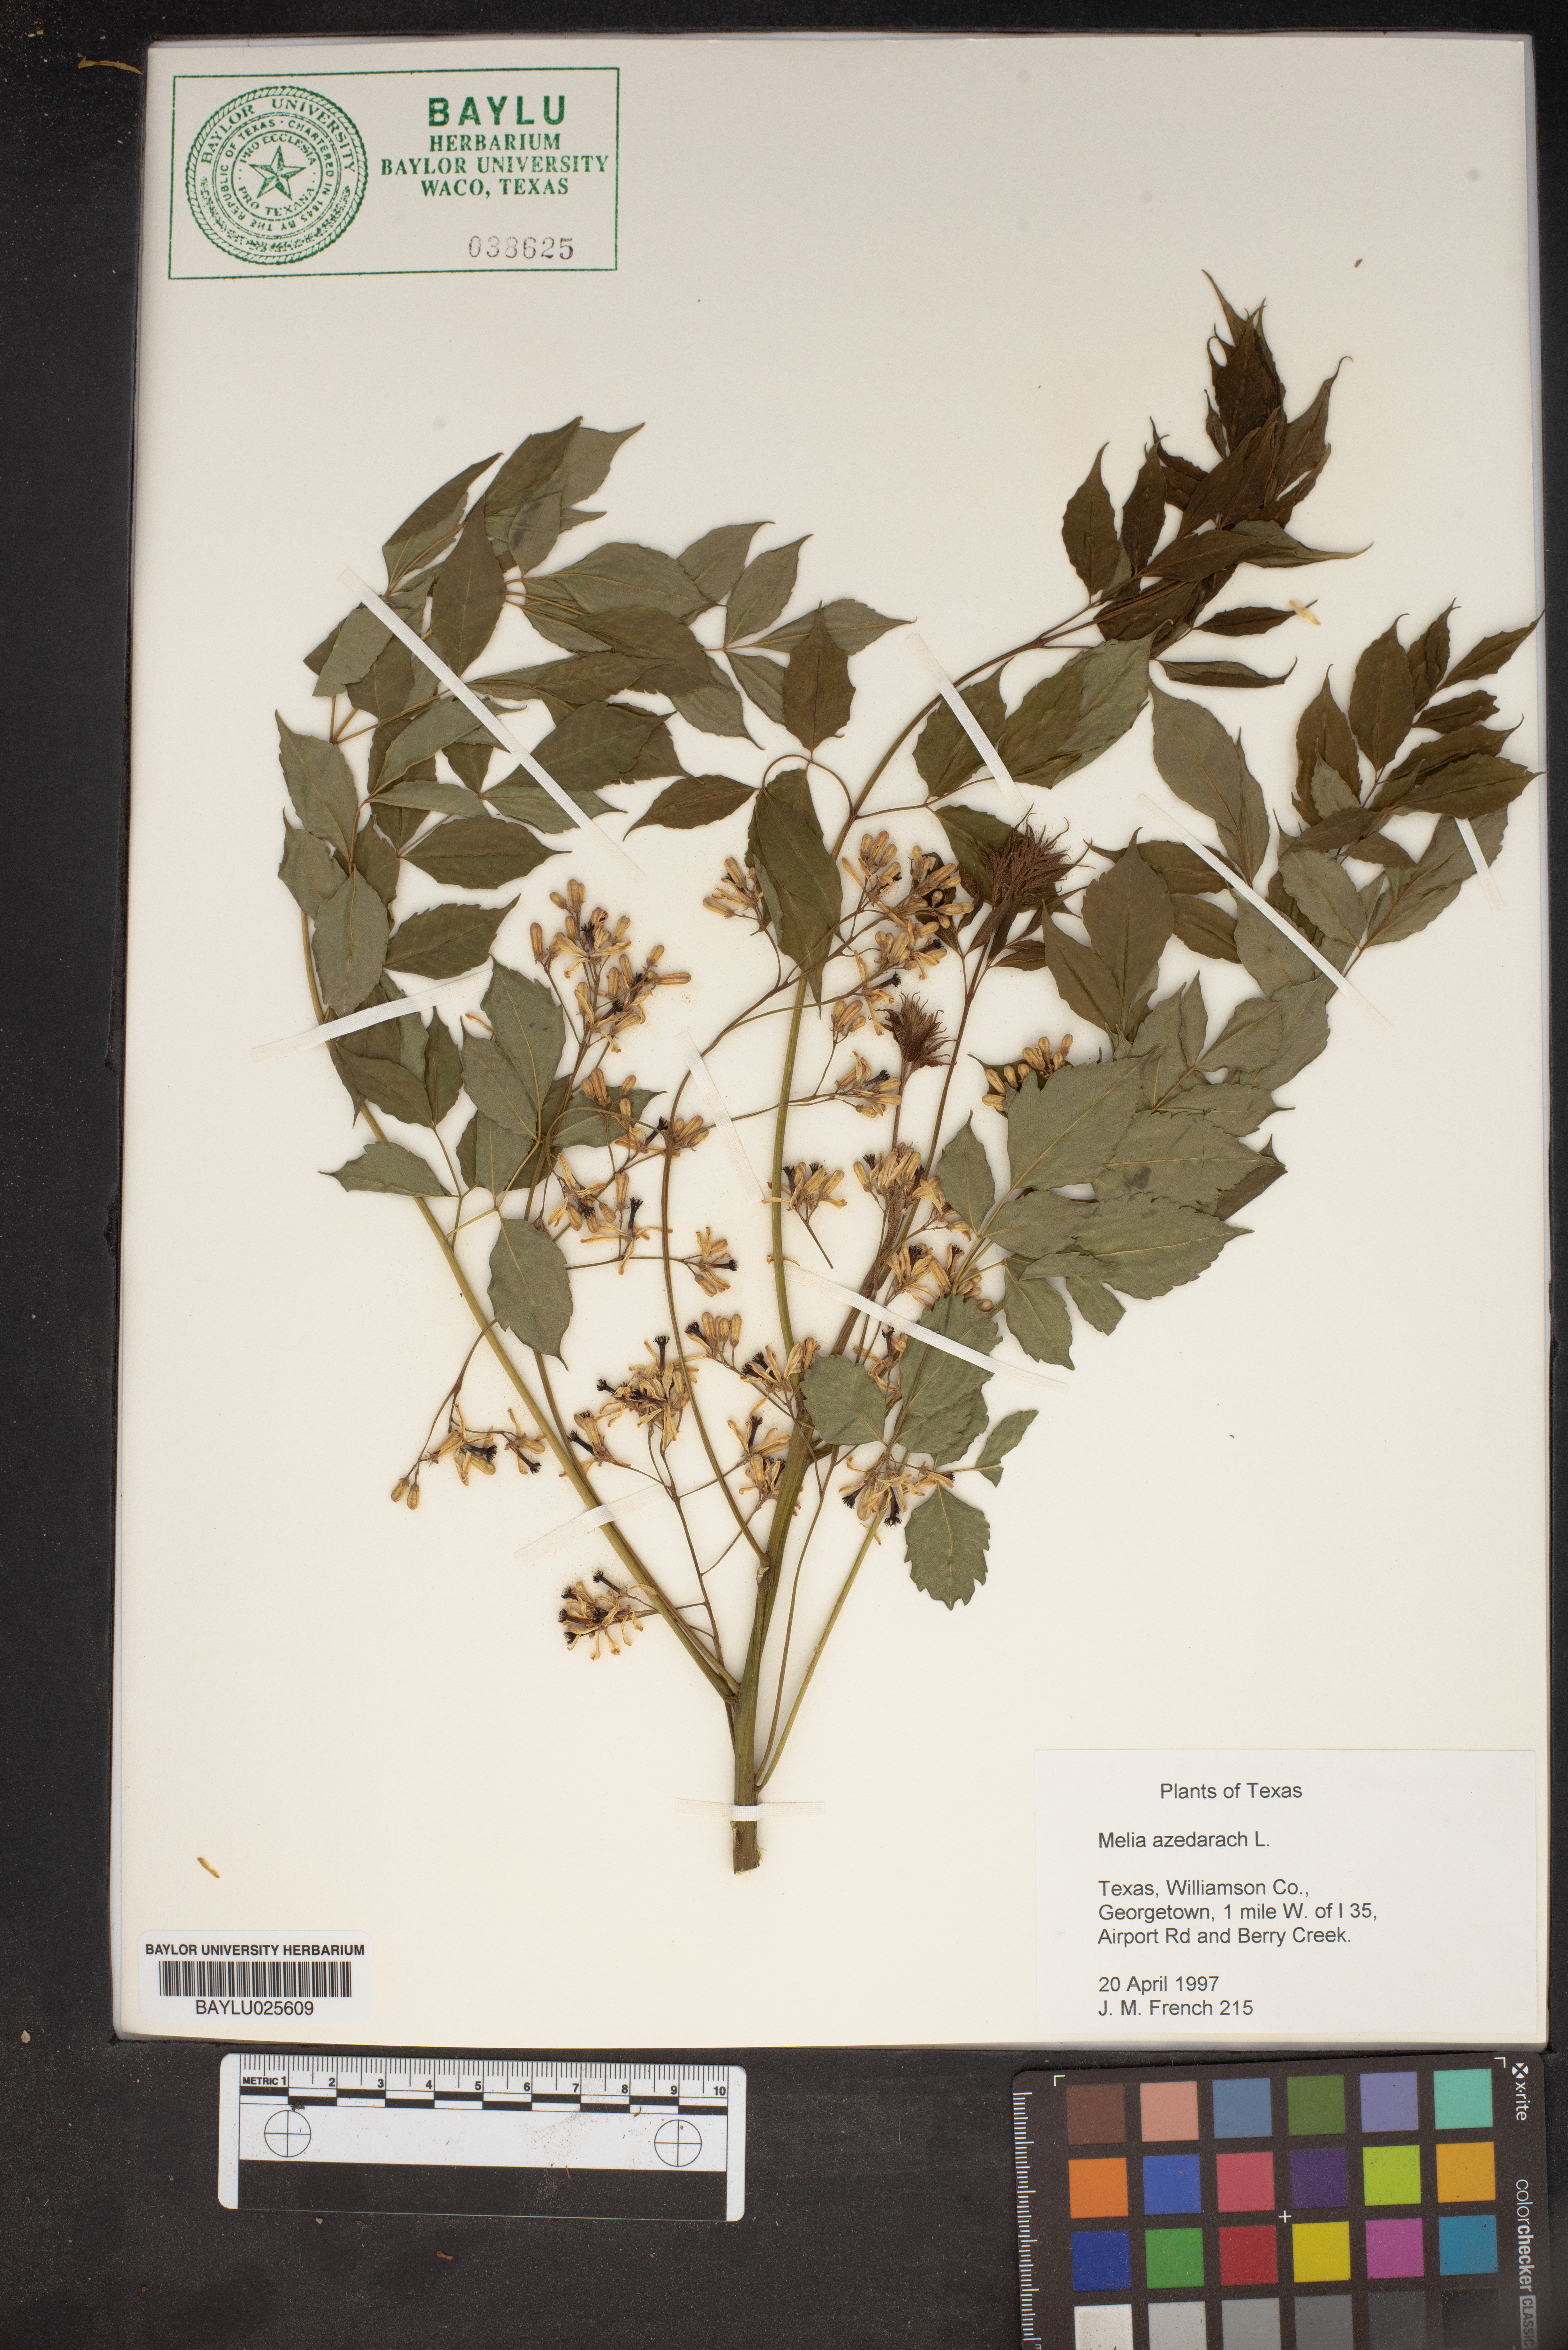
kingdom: Plantae
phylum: Tracheophyta
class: Magnoliopsida
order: Sapindales
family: Meliaceae
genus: Melia
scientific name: Melia azedarach
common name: Chinaberrytree
